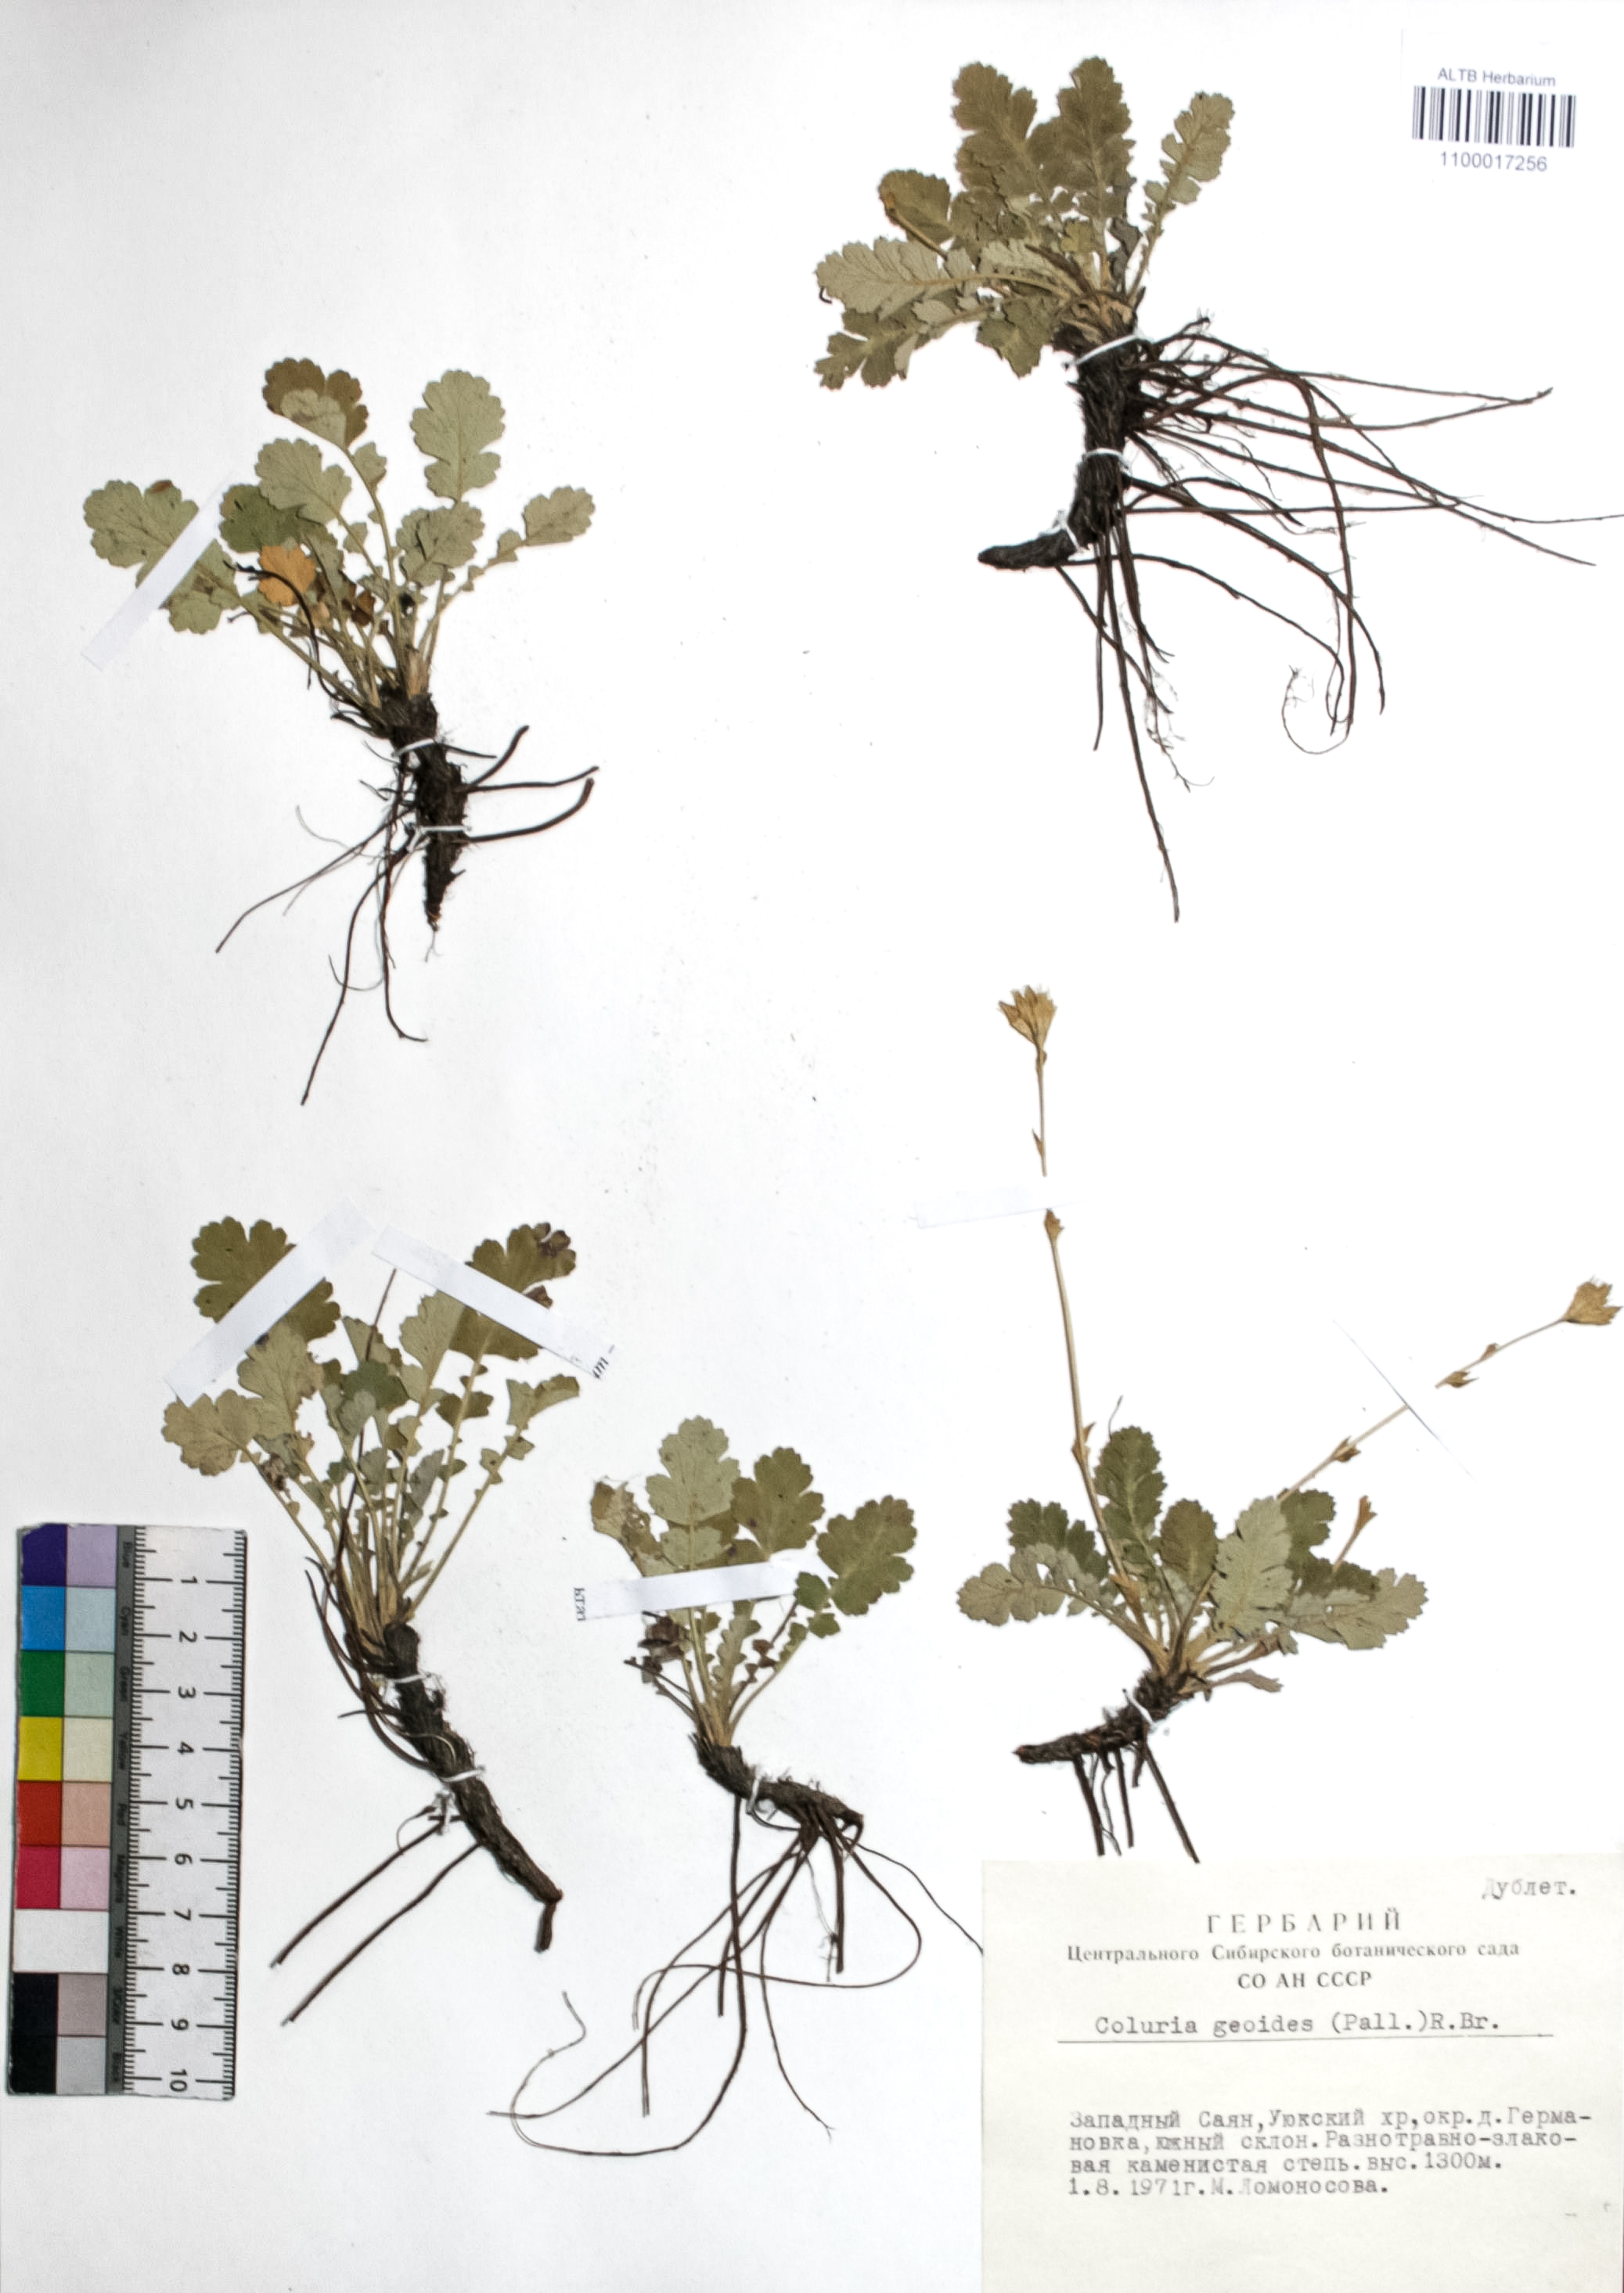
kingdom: Plantae
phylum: Tracheophyta
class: Magnoliopsida
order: Rosales
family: Rosaceae
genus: Geum
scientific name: Geum geoides
